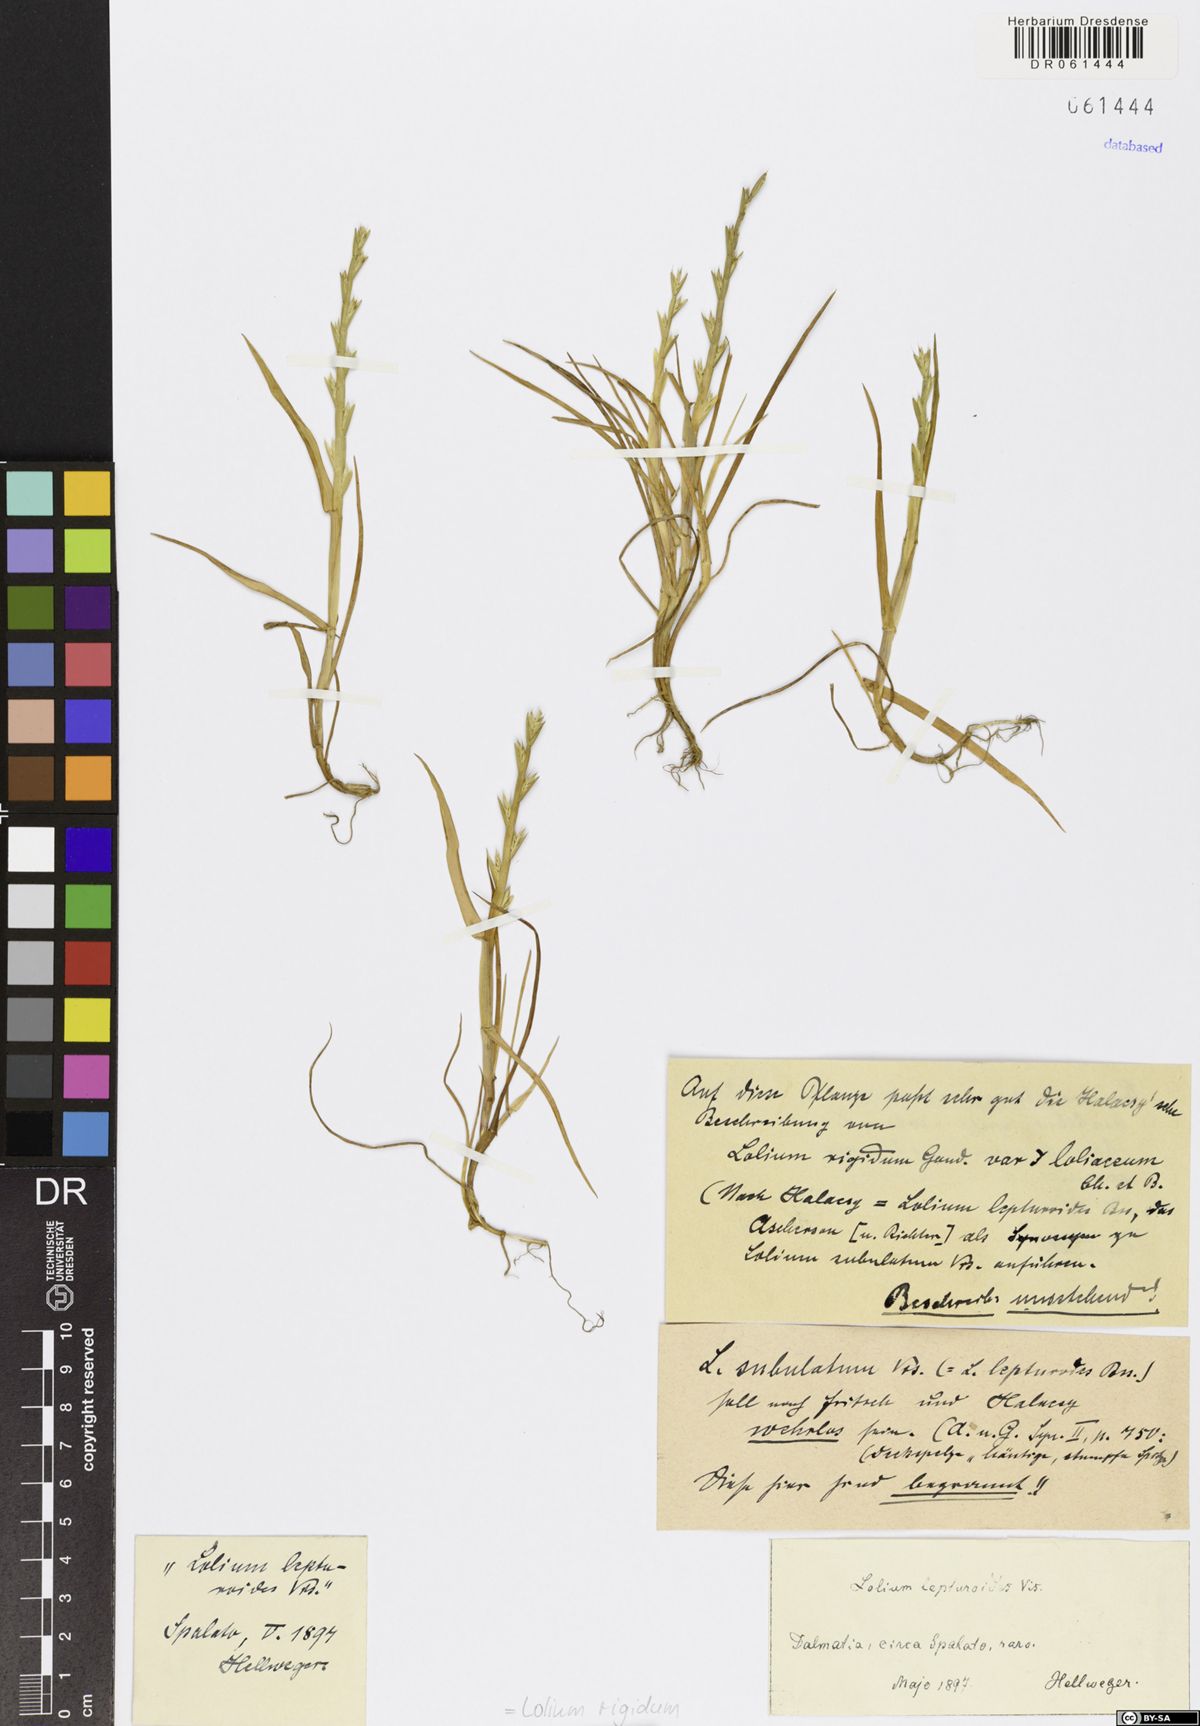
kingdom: Plantae
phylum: Tracheophyta
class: Liliopsida
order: Poales
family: Poaceae
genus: Lolium
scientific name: Lolium rigidum
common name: Wimmera ryegrass
